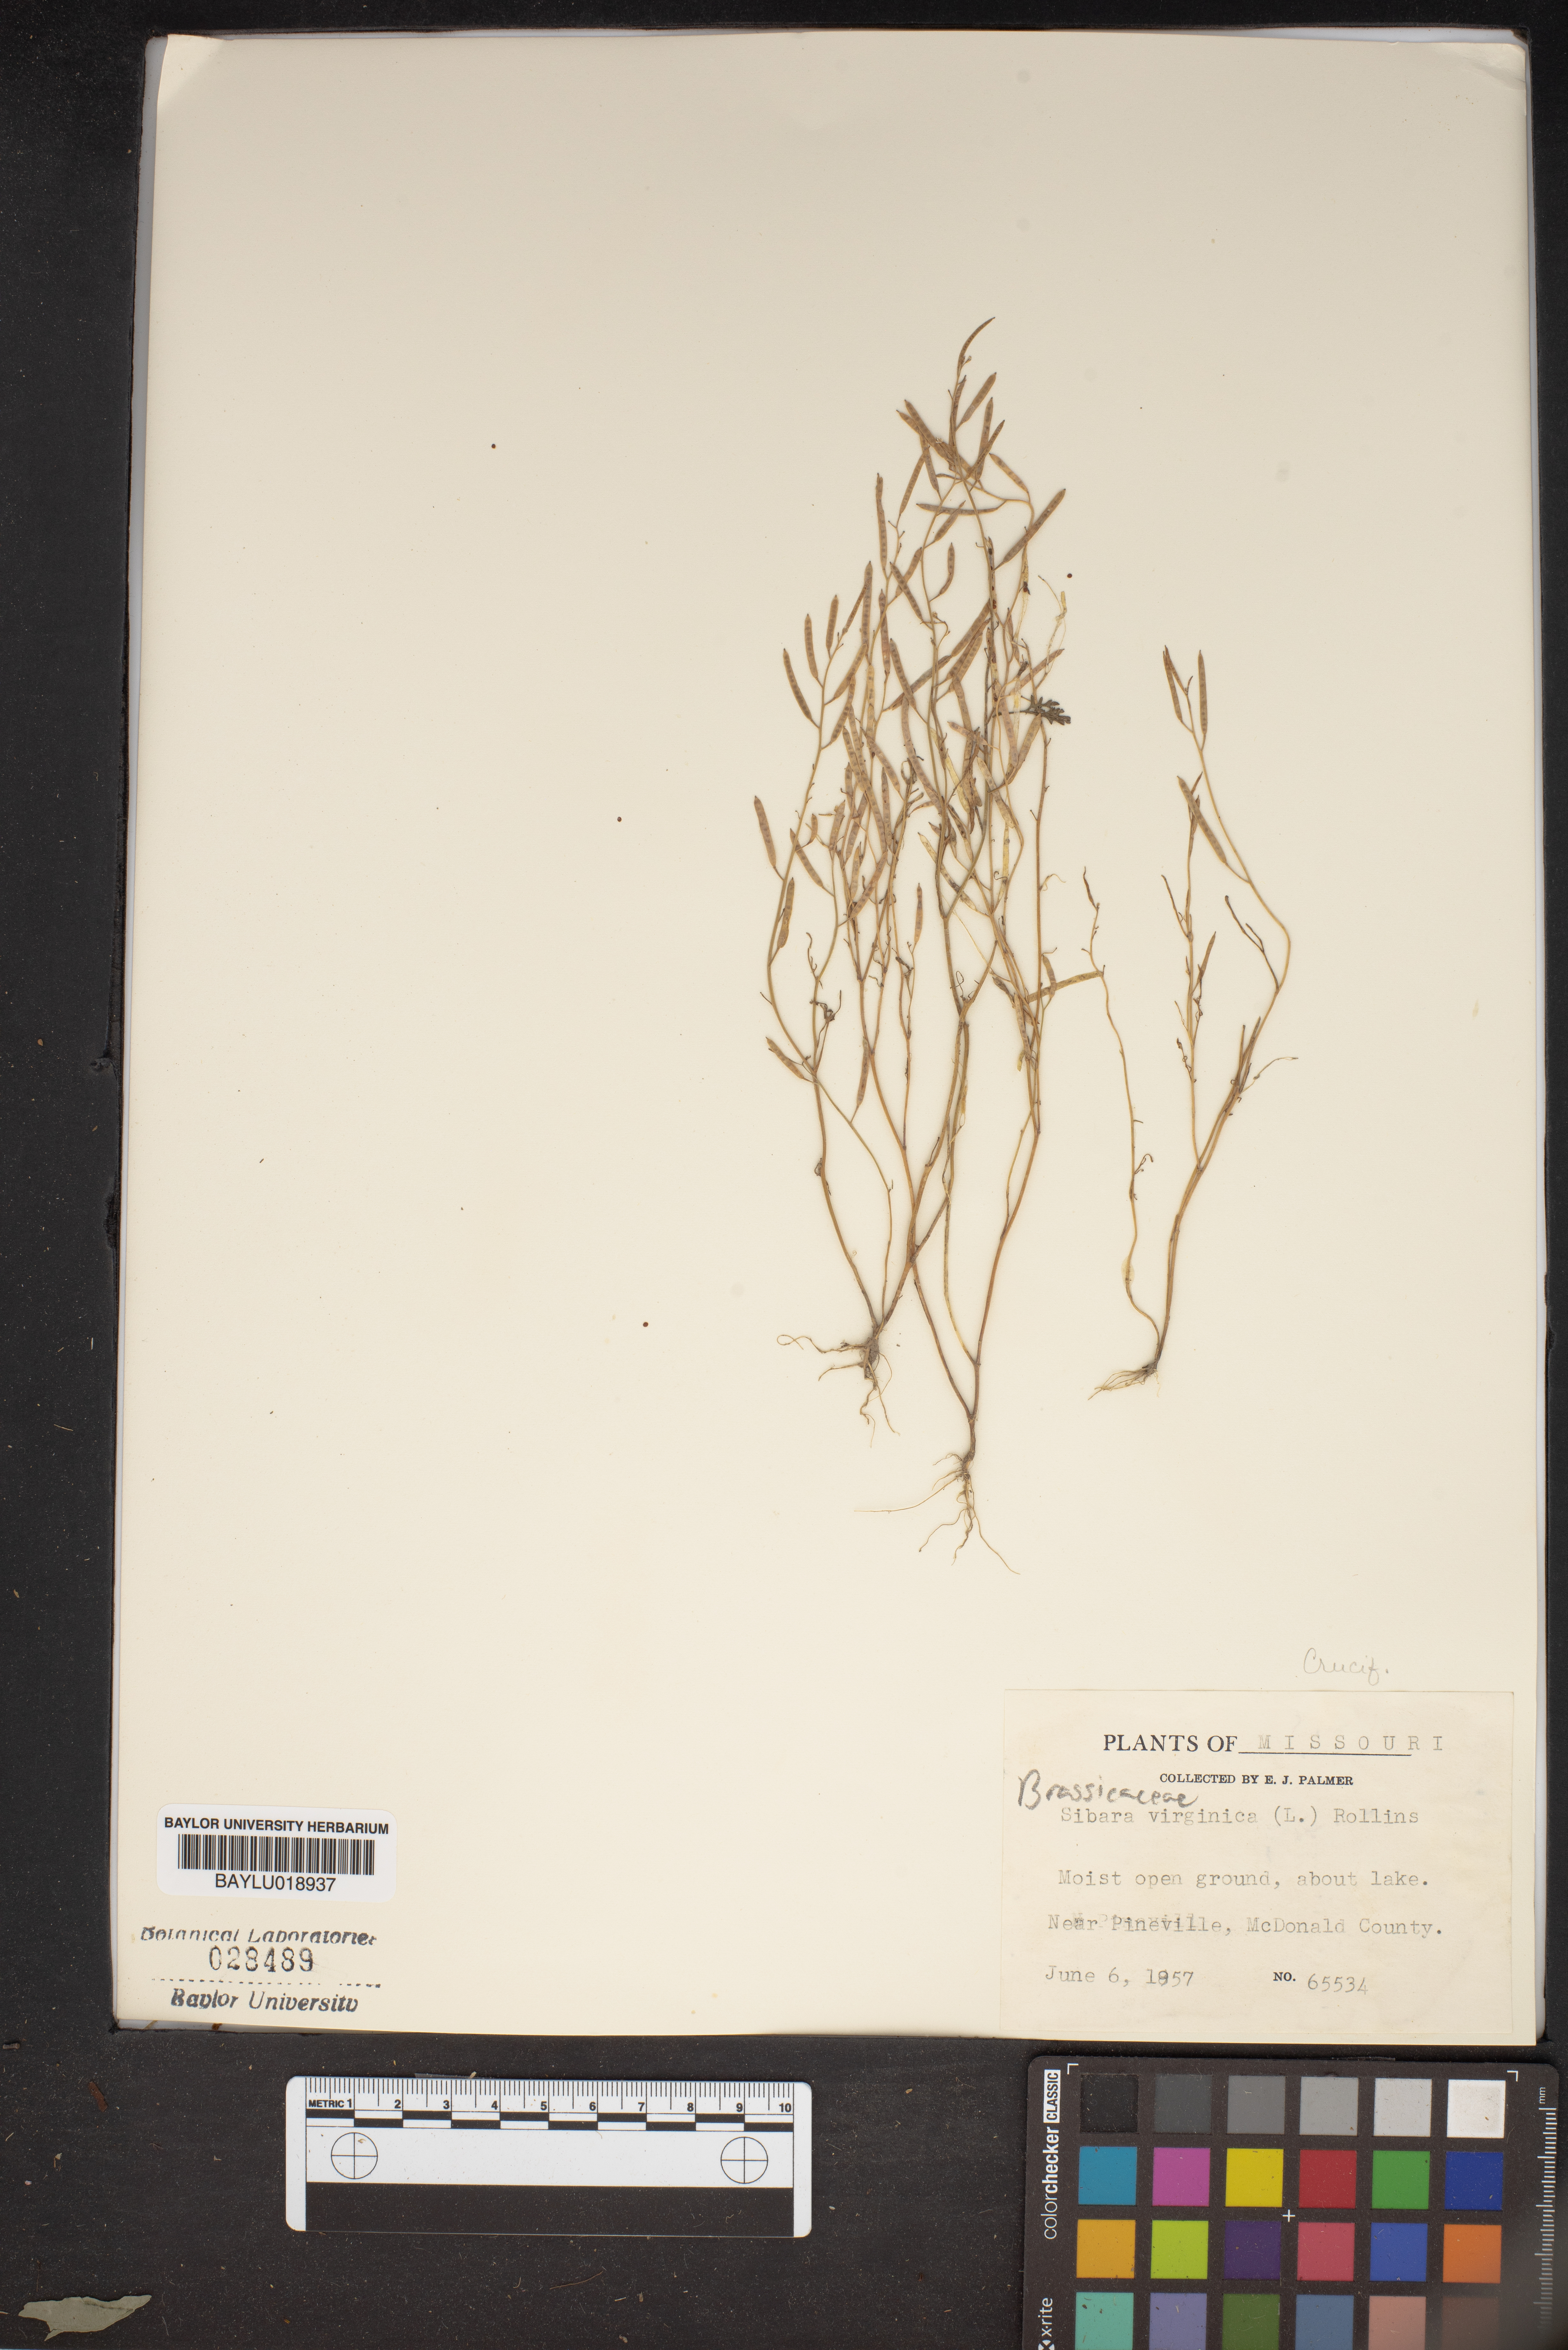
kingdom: Plantae
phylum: Tracheophyta
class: Magnoliopsida
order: Brassicales
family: Brassicaceae
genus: Planodes
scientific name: Planodes virginicum
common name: Virginia cress
